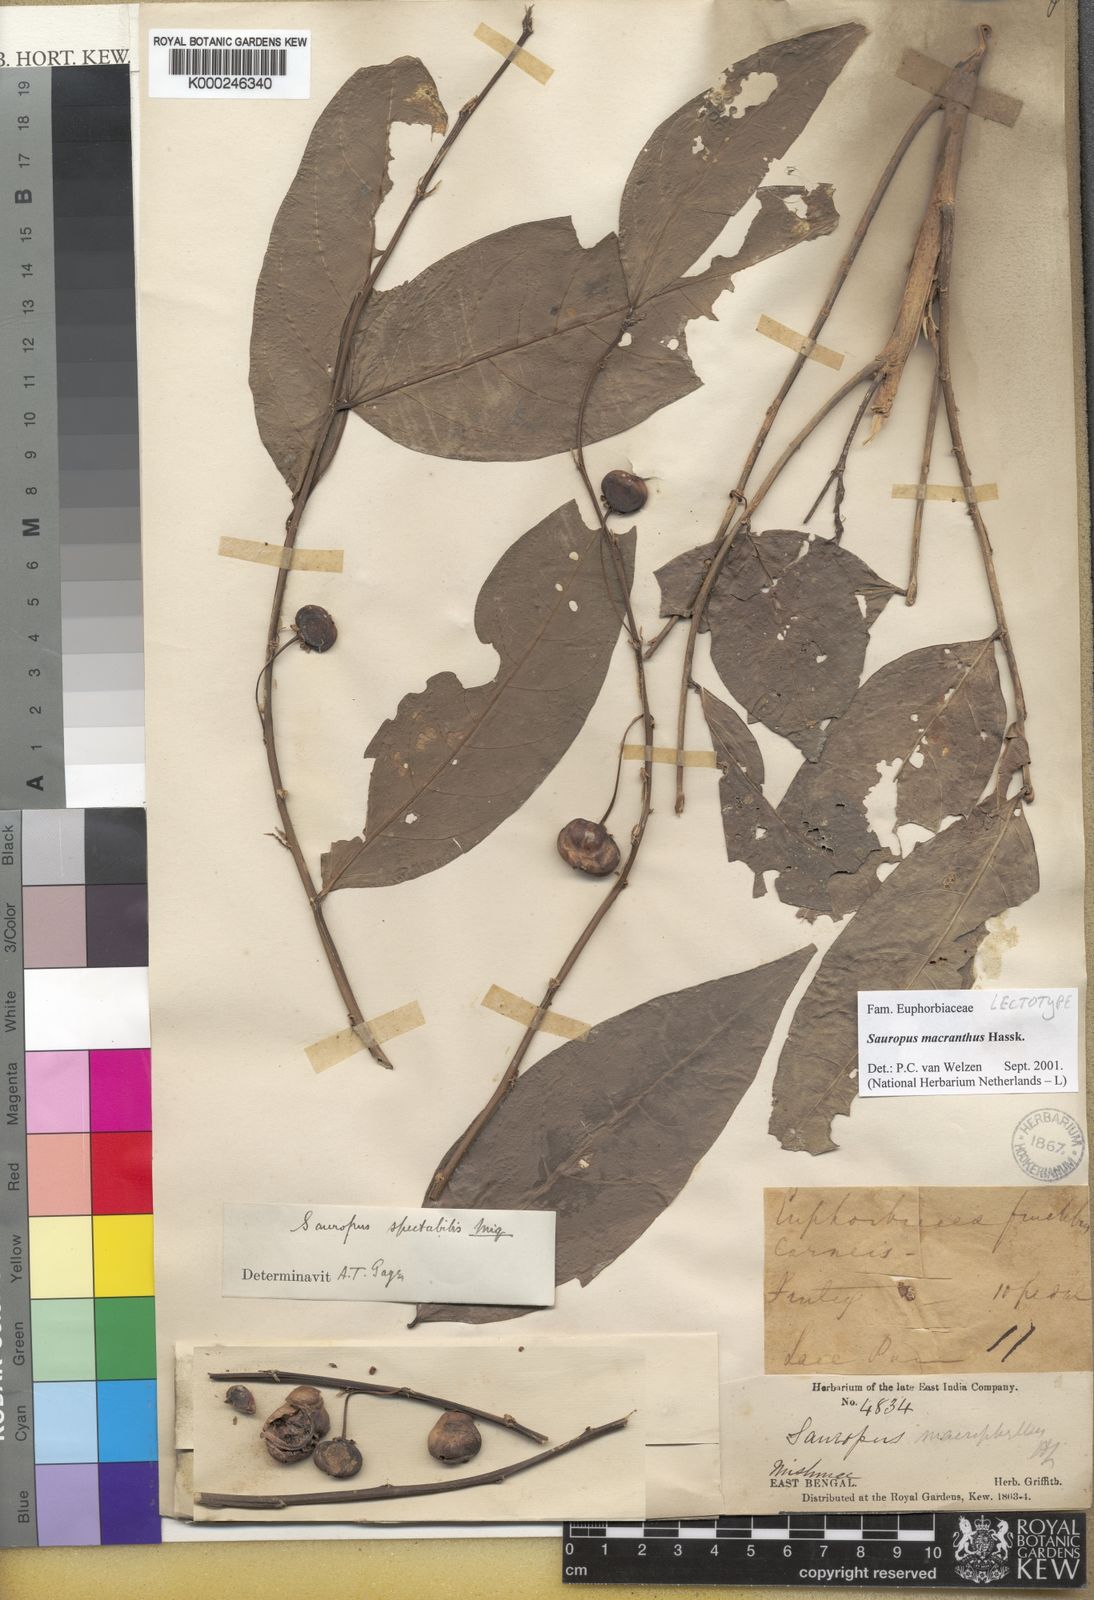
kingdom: Plantae
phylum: Tracheophyta
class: Magnoliopsida
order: Malpighiales
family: Phyllanthaceae
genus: Breynia
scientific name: Breynia macrantha
